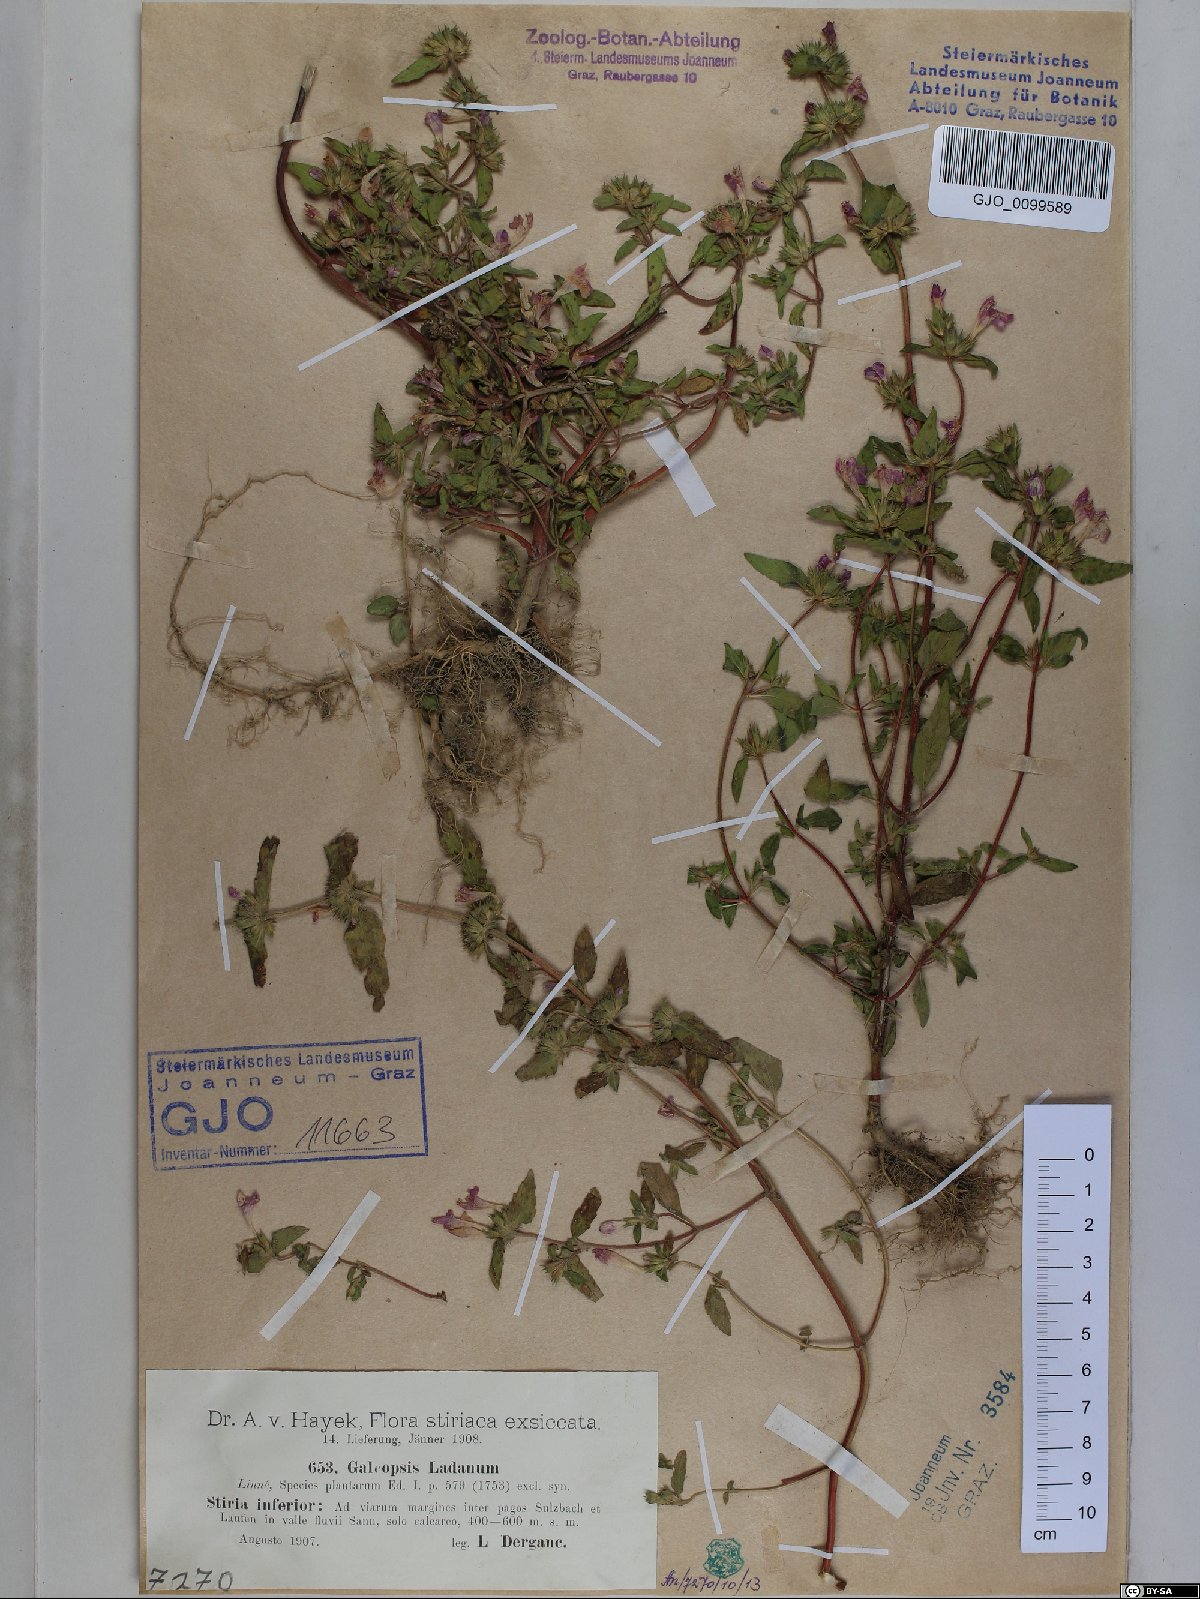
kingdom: Plantae
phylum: Tracheophyta
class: Magnoliopsida
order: Lamiales
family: Lamiaceae
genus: Galeopsis
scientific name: Galeopsis ladanum
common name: Broad-leaved hemp-nettle
